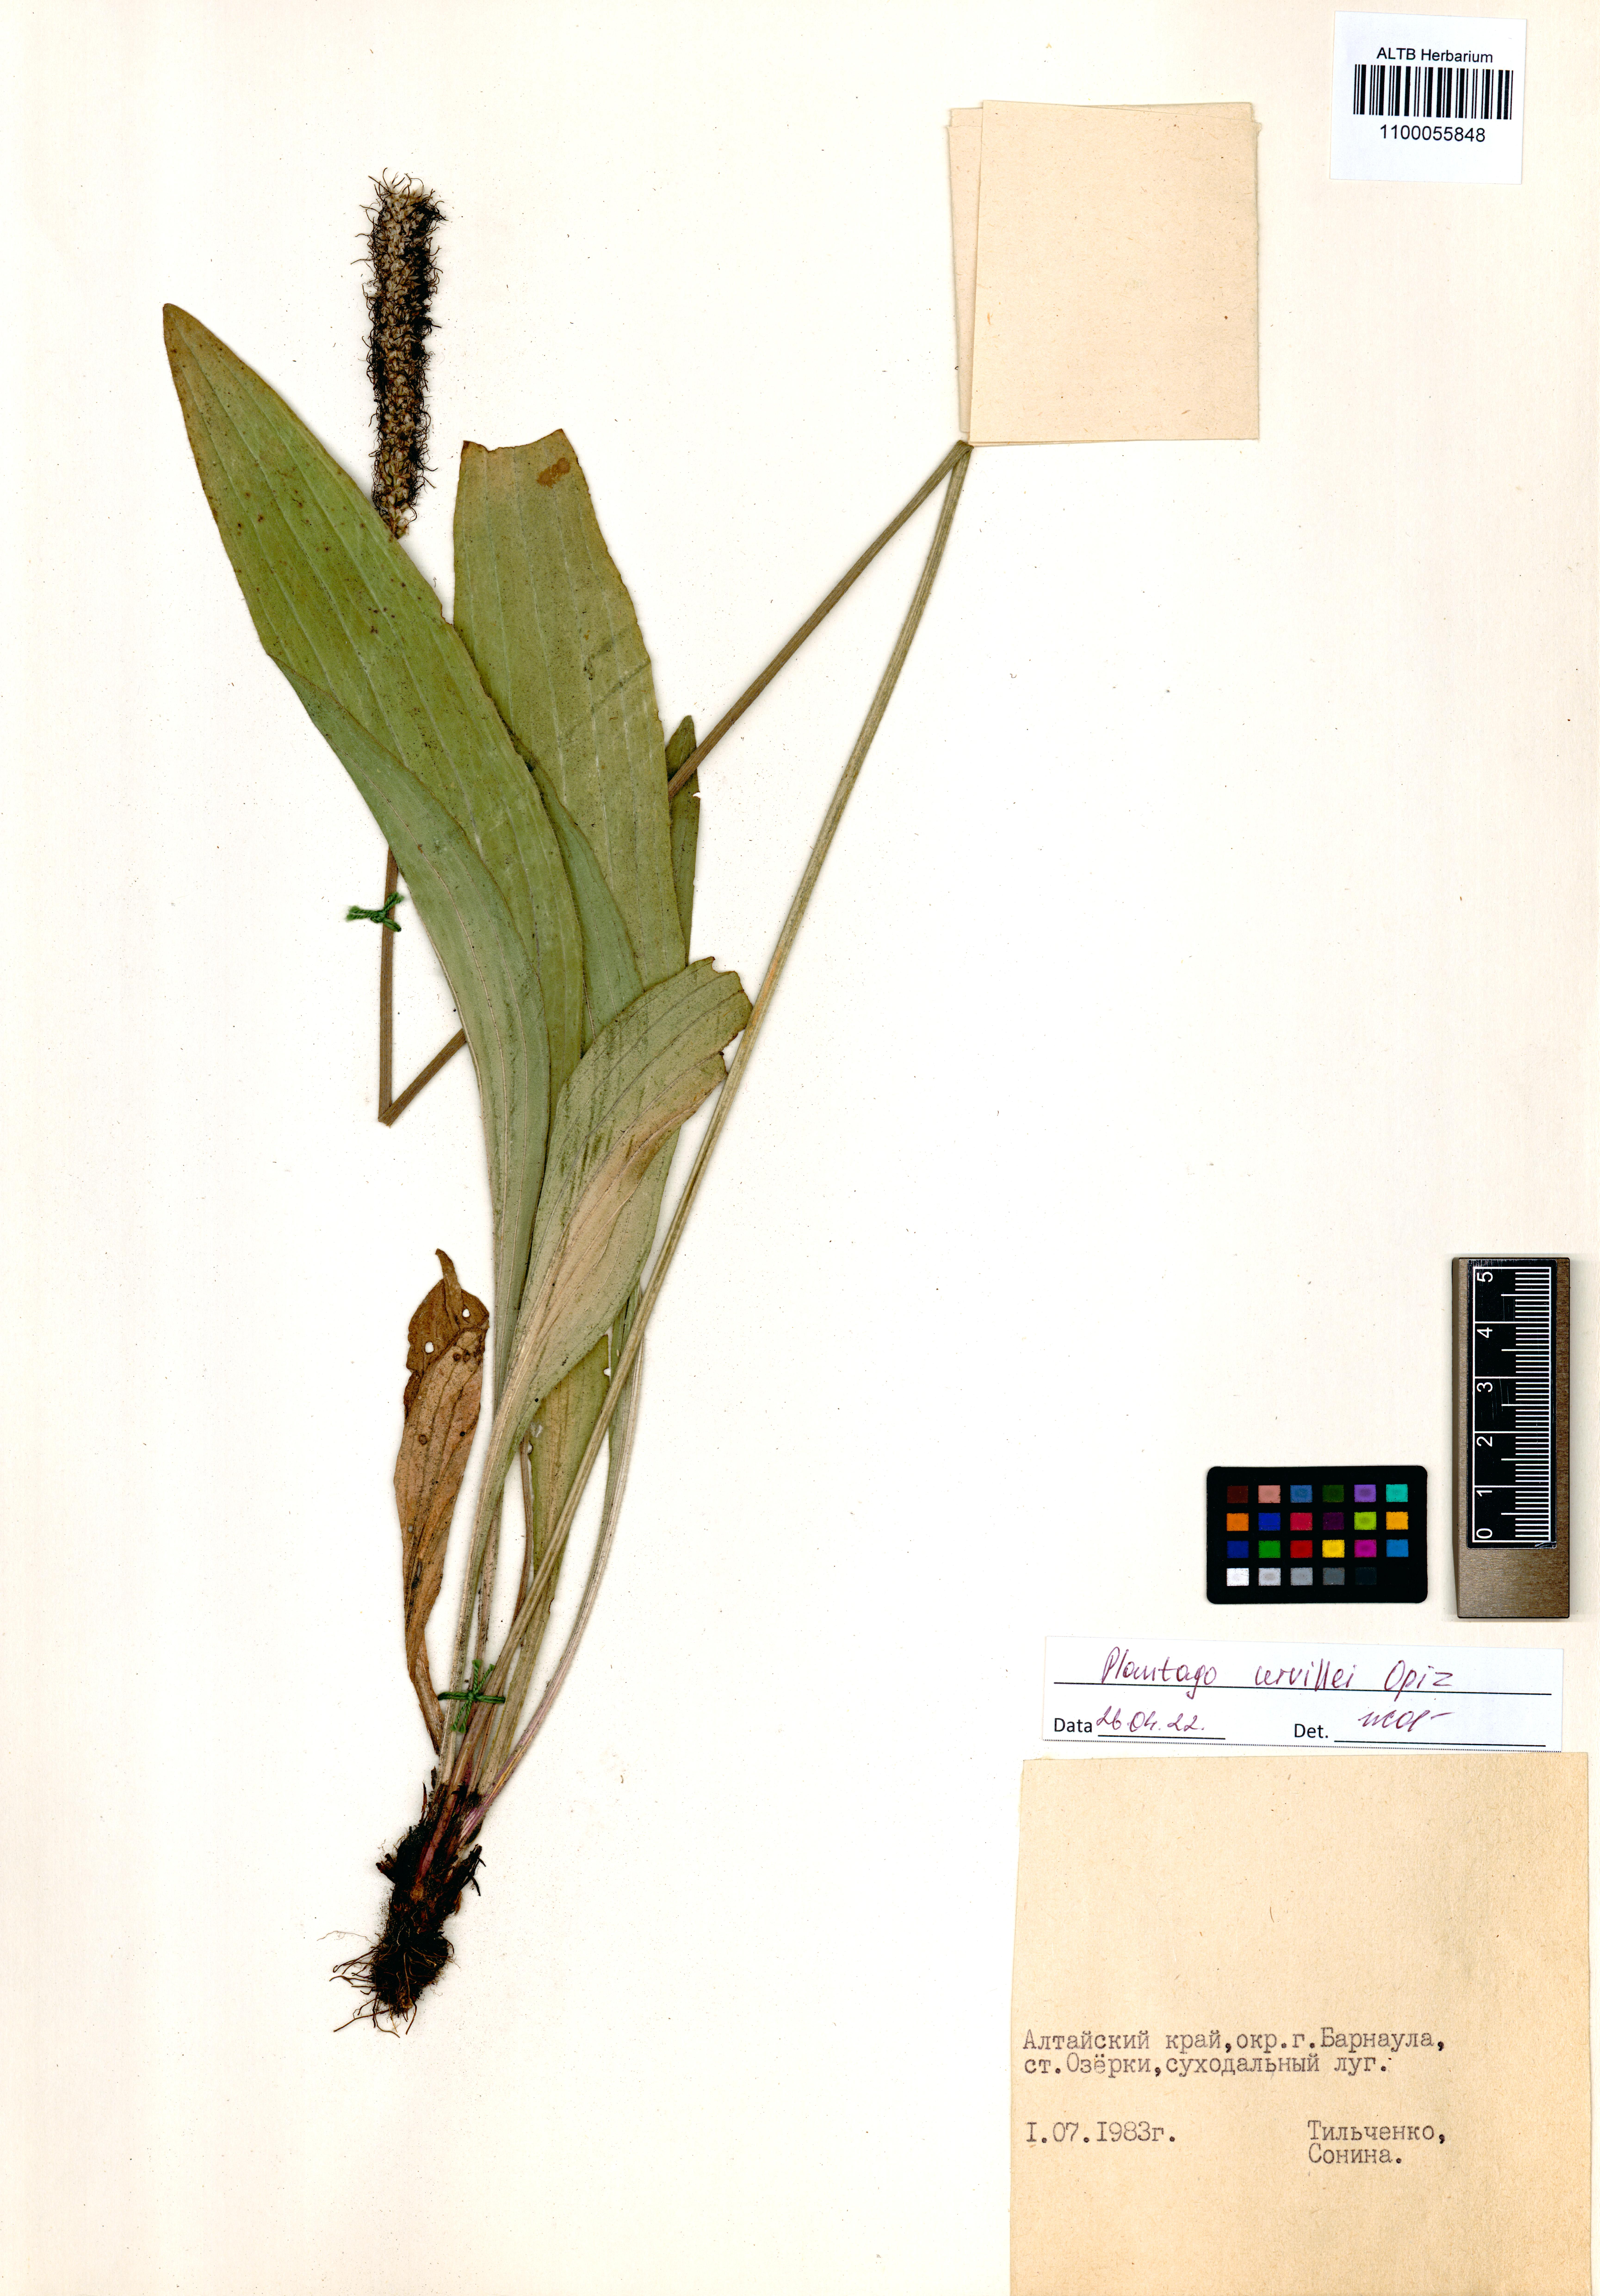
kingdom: Plantae
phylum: Tracheophyta
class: Magnoliopsida
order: Lamiales
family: Plantaginaceae
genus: Plantago
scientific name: Plantago urvillei
